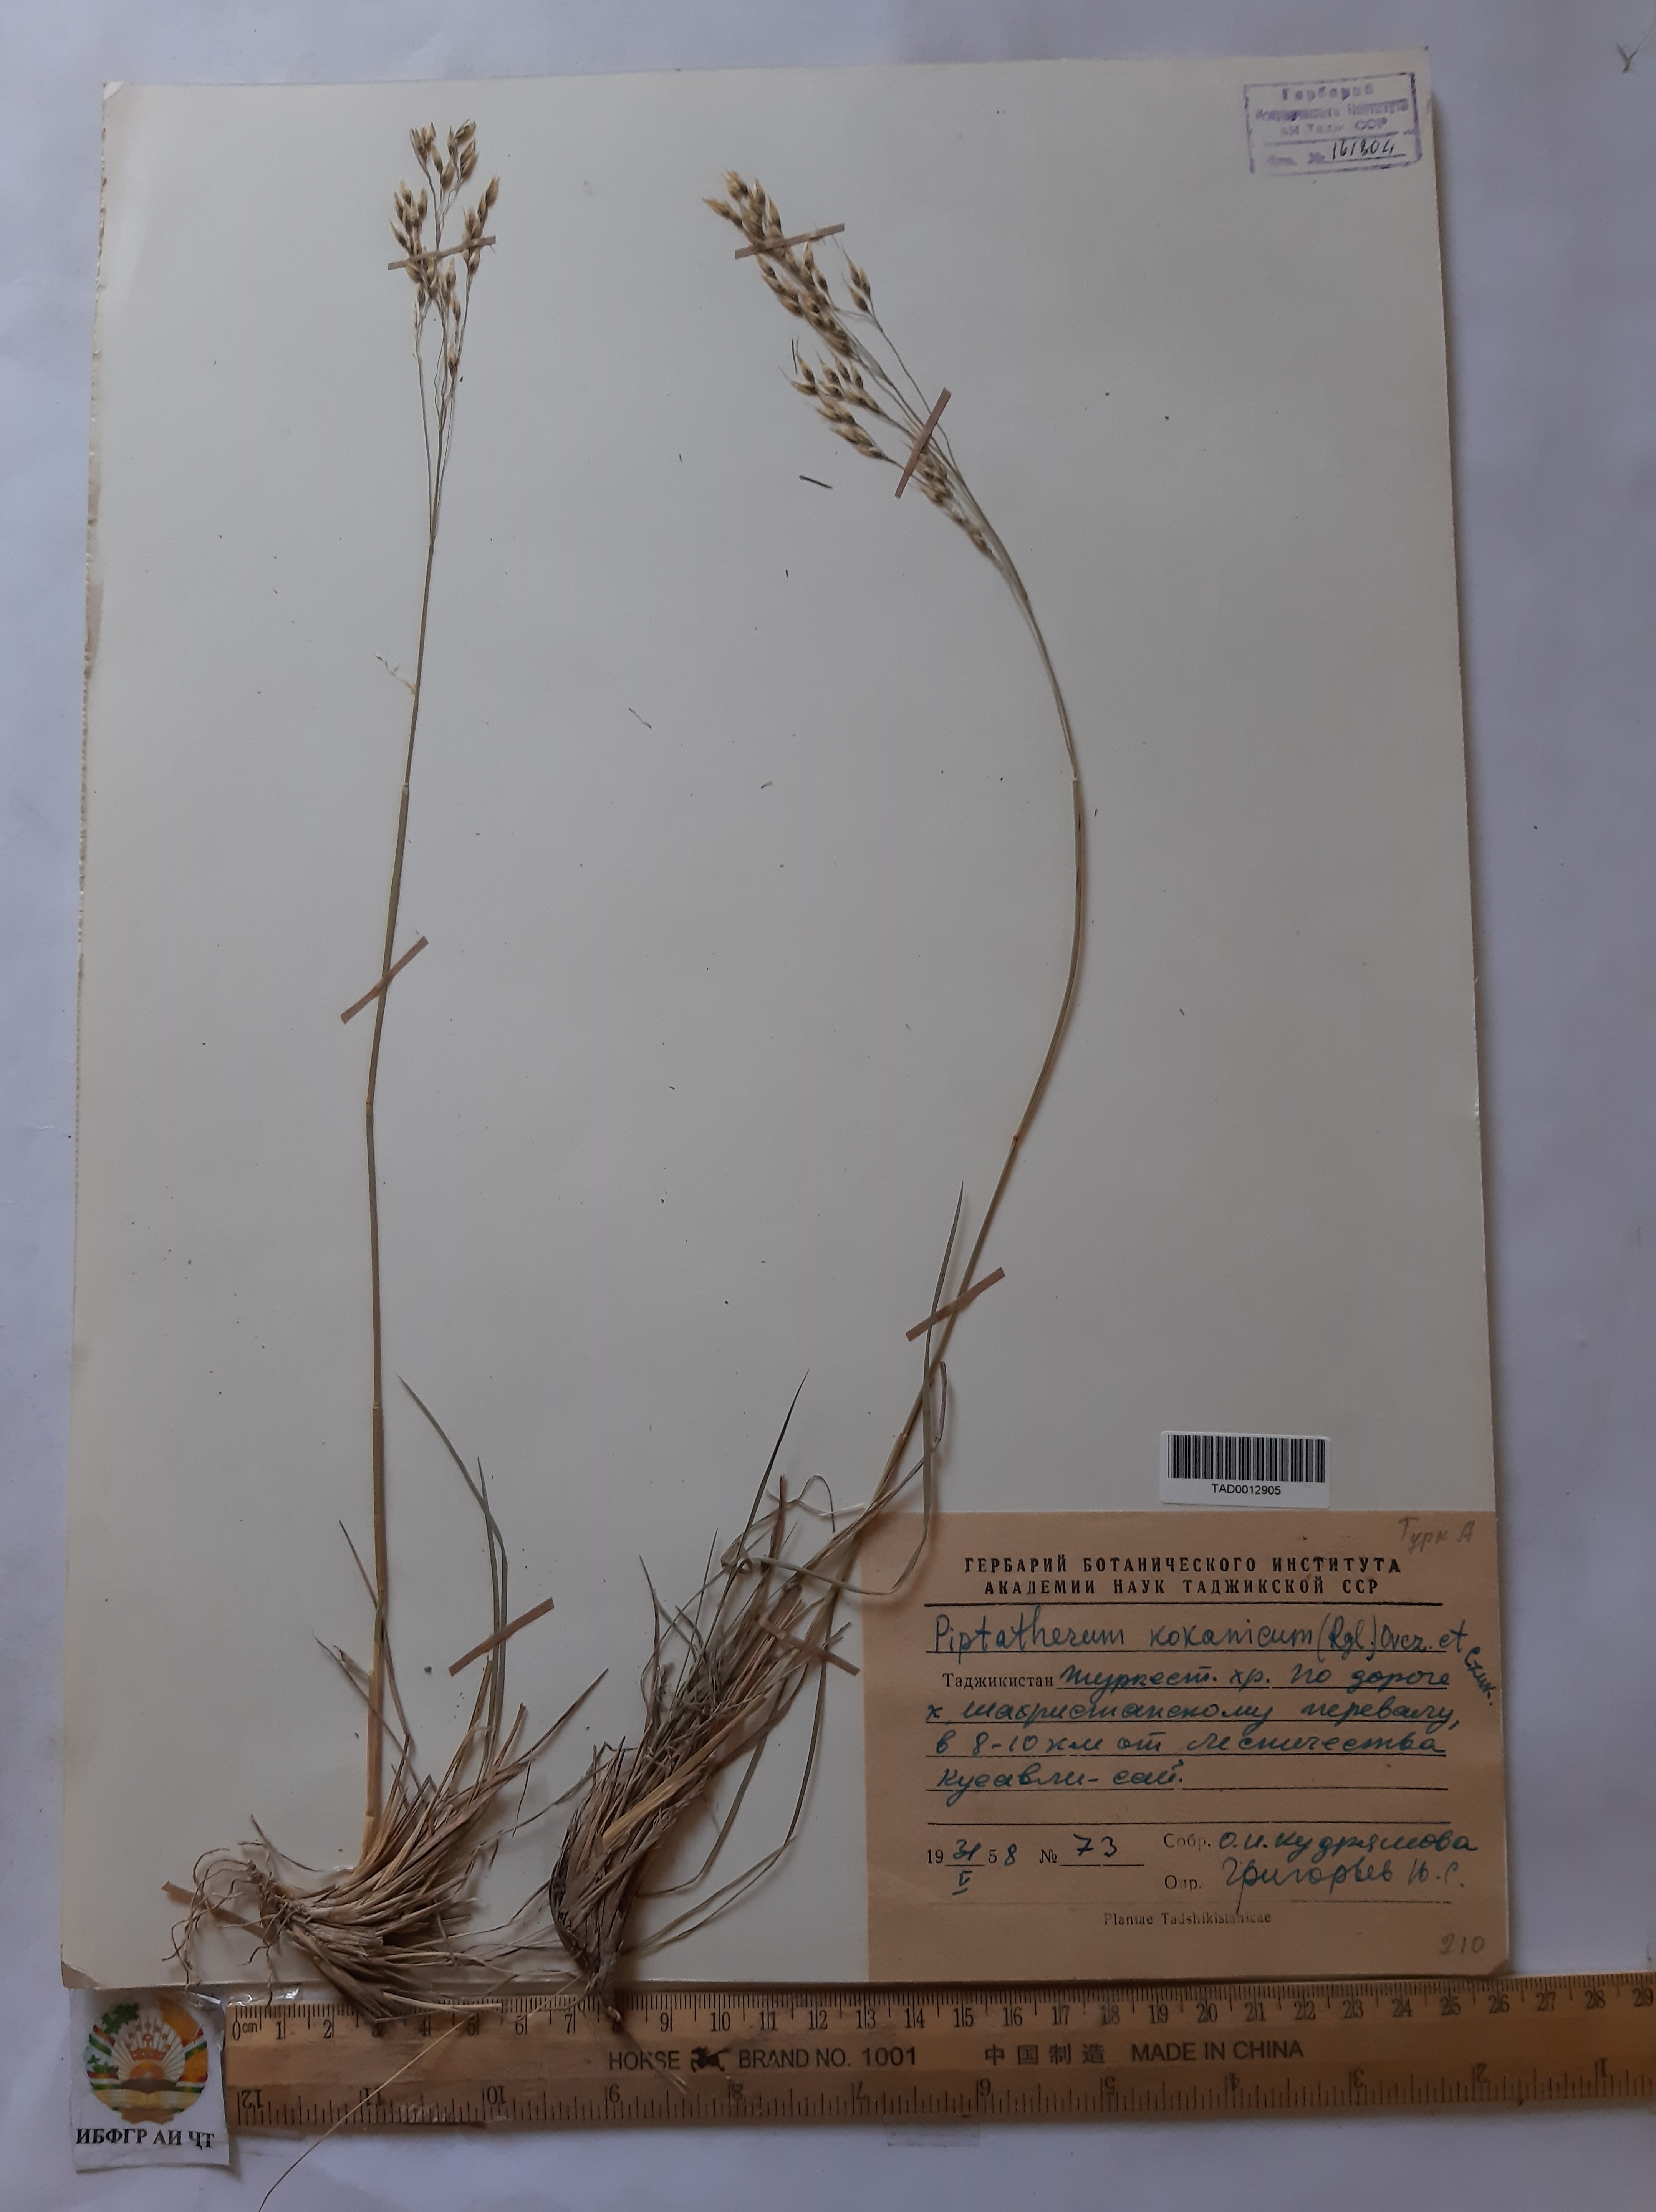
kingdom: Plantae
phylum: Tracheophyta
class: Liliopsida
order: Poales
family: Poaceae
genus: Piptatherum
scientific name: Piptatherum songaricum
